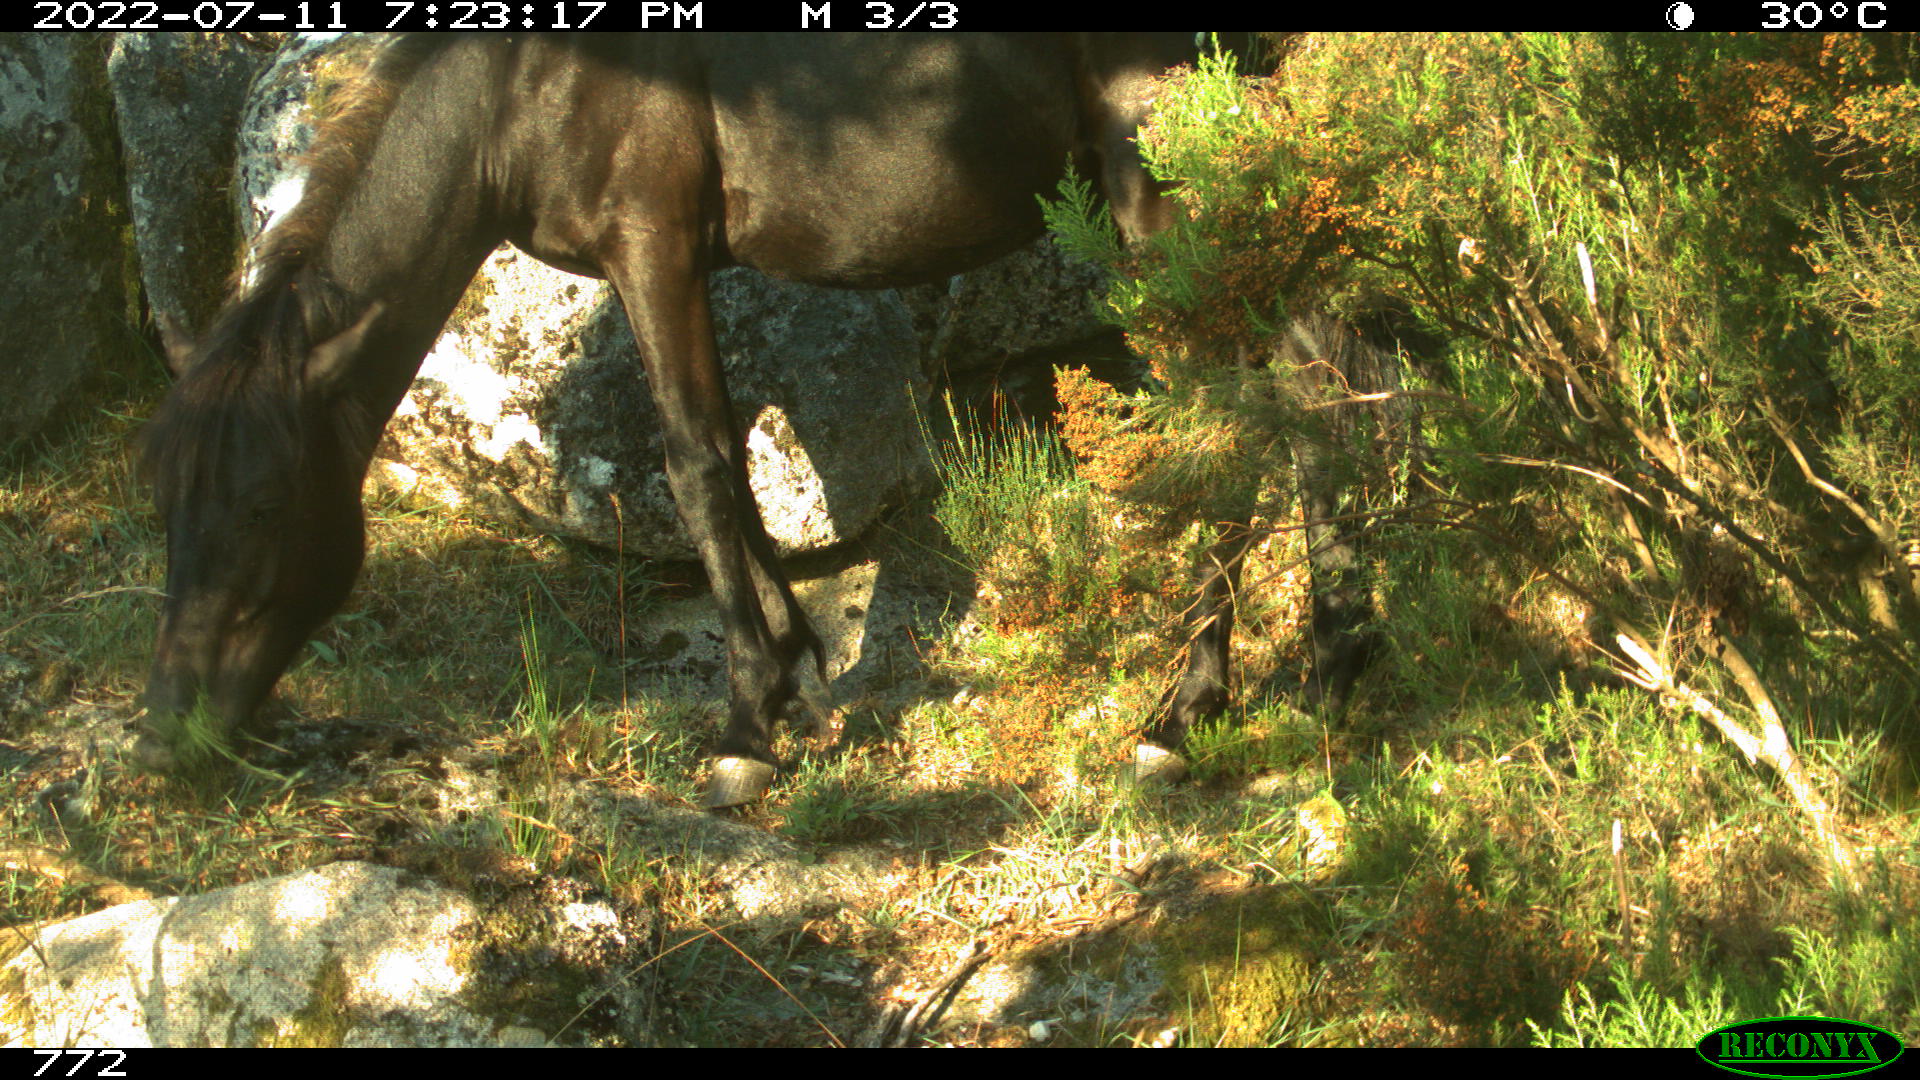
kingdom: Animalia
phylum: Chordata
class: Mammalia
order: Perissodactyla
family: Equidae
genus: Equus
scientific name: Equus caballus
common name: Horse
